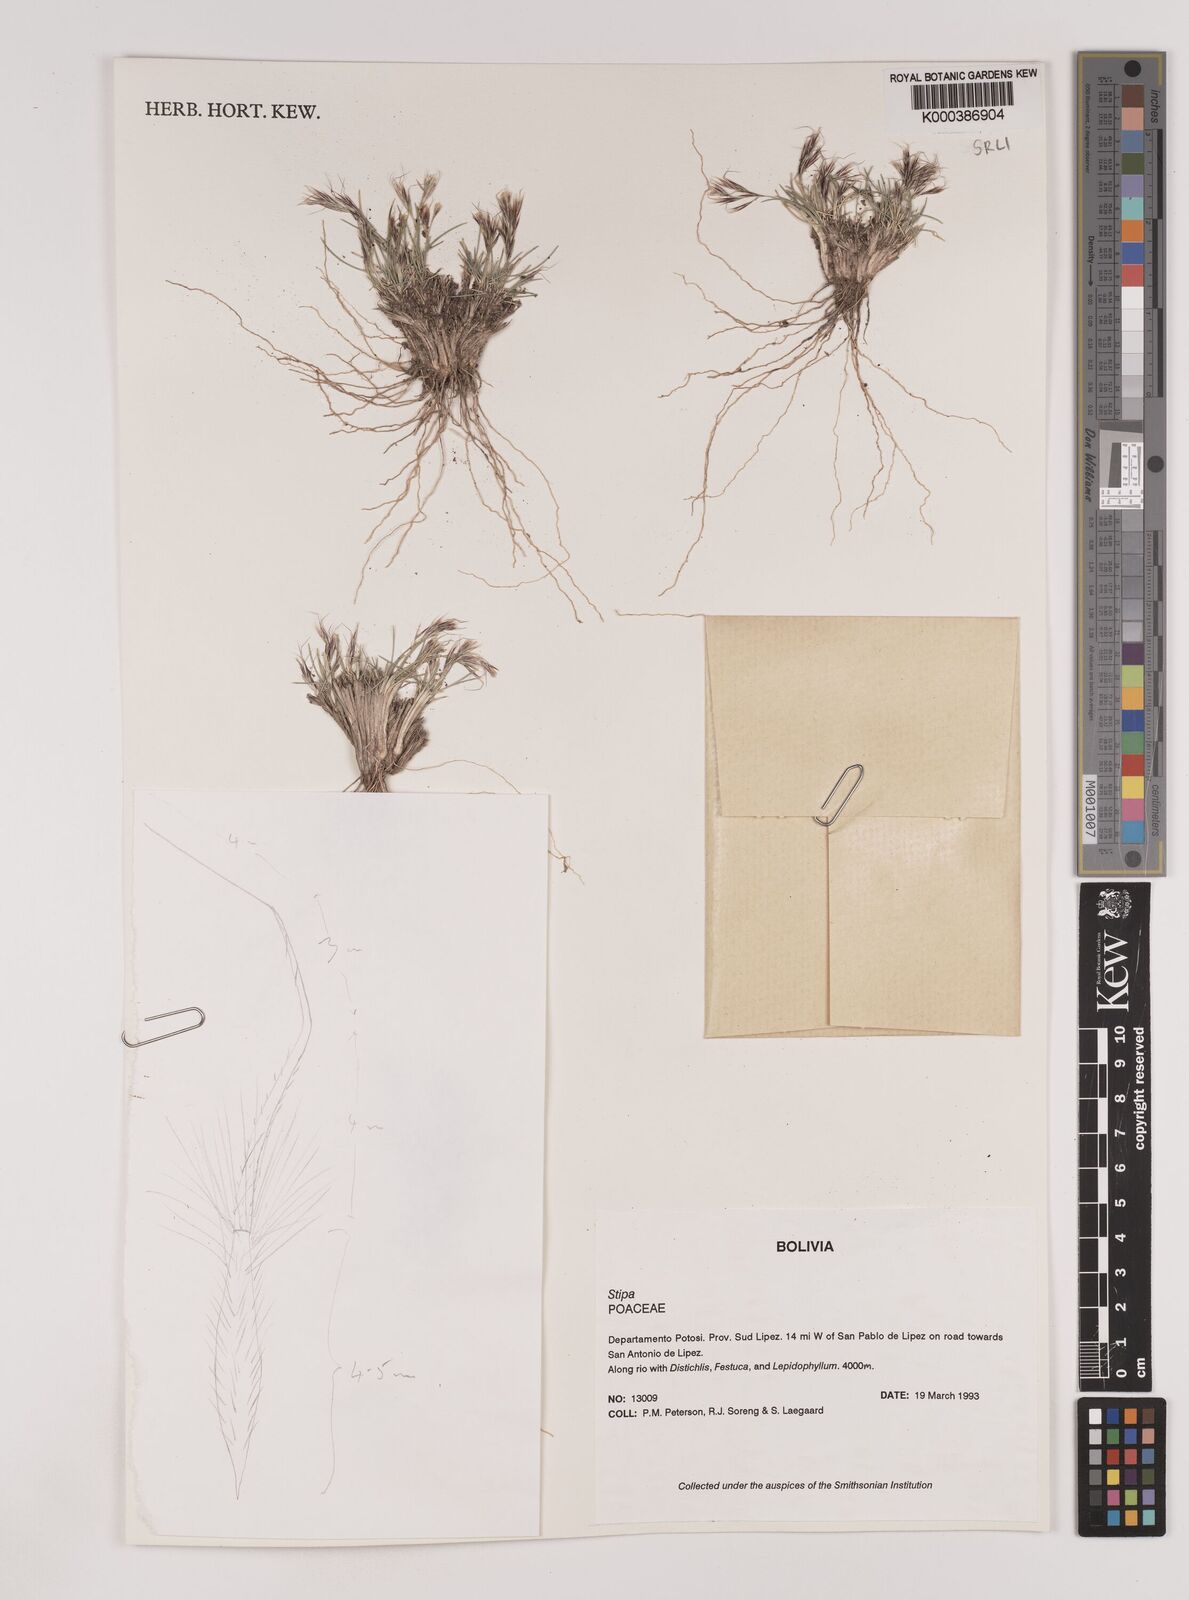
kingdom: Plantae
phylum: Tracheophyta
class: Liliopsida
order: Poales
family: Poaceae
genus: Nassella
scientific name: Nassella nardoides
